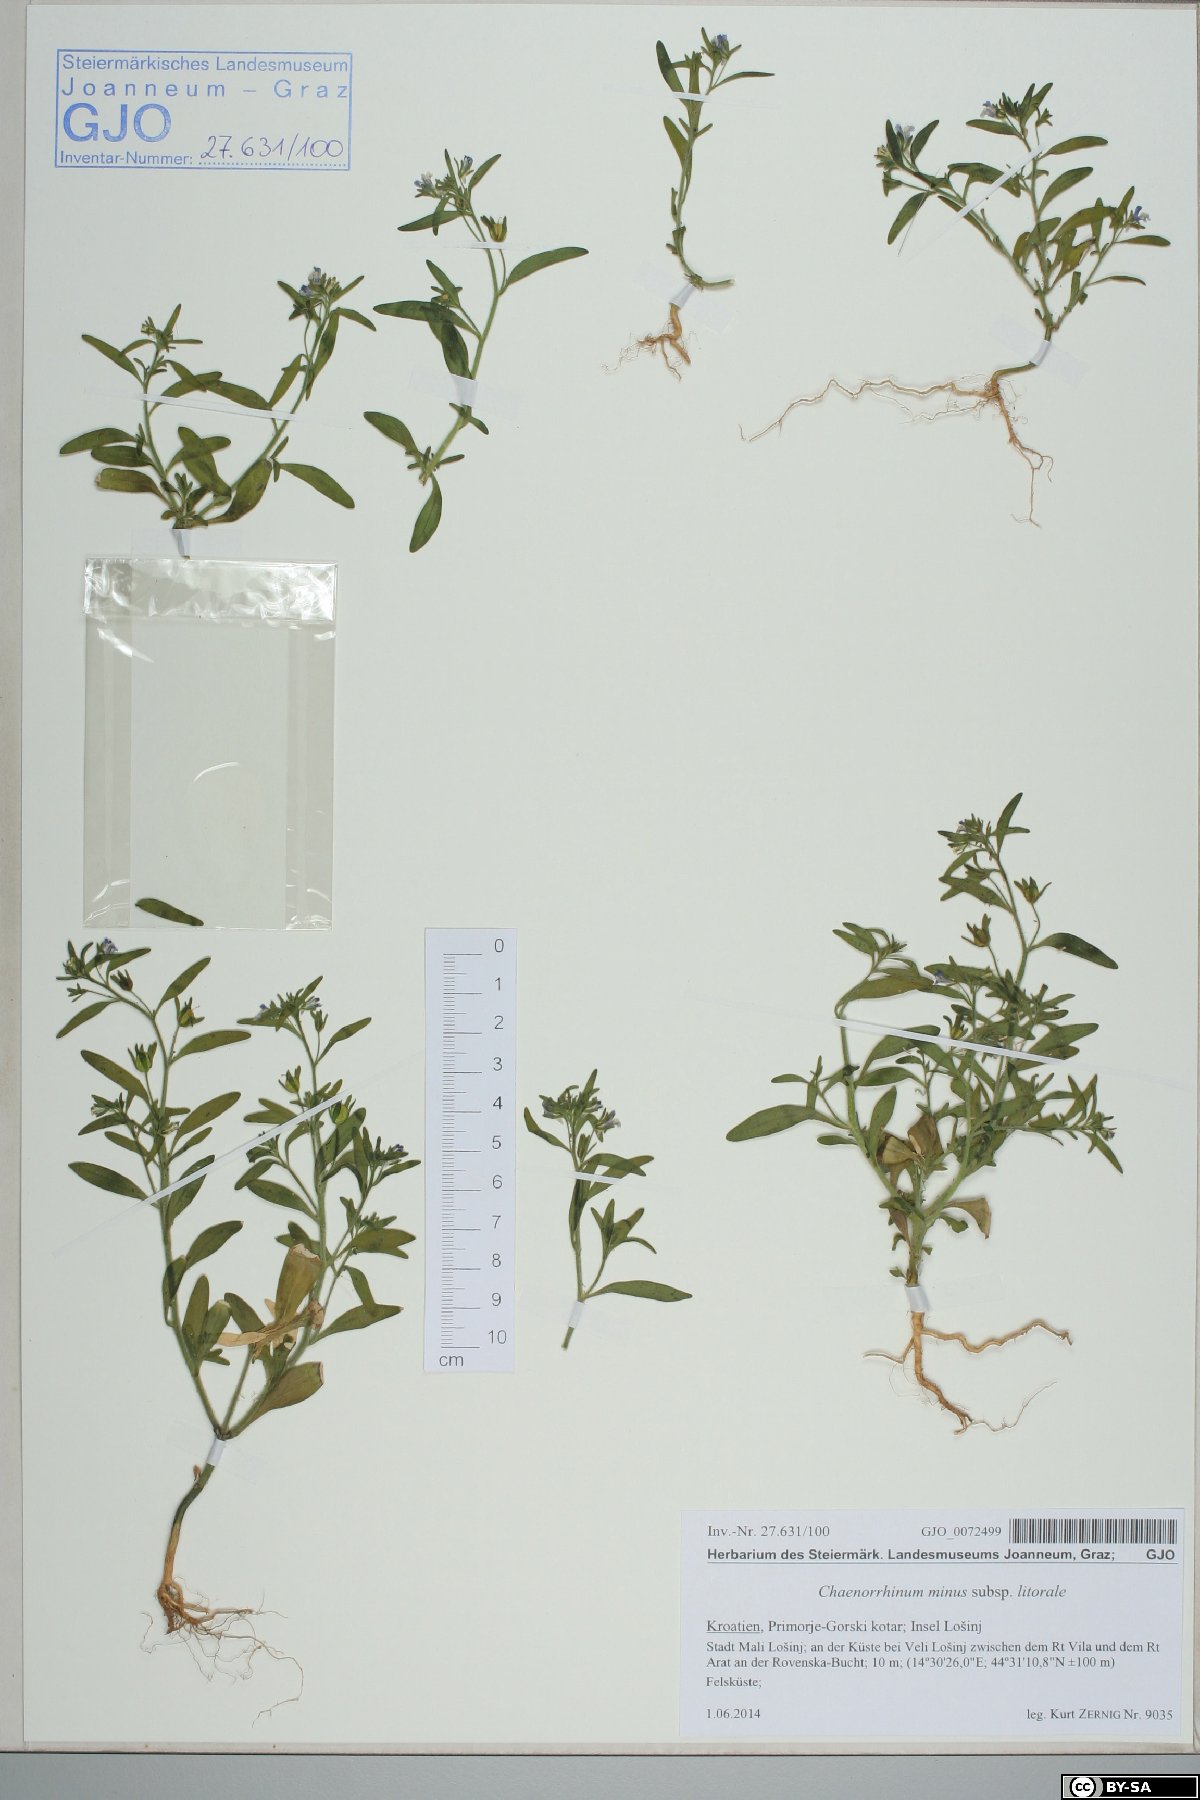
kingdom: Plantae
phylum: Tracheophyta
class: Magnoliopsida
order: Lamiales
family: Plantaginaceae
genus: Chaenorhinum
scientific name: Chaenorhinum litorale
